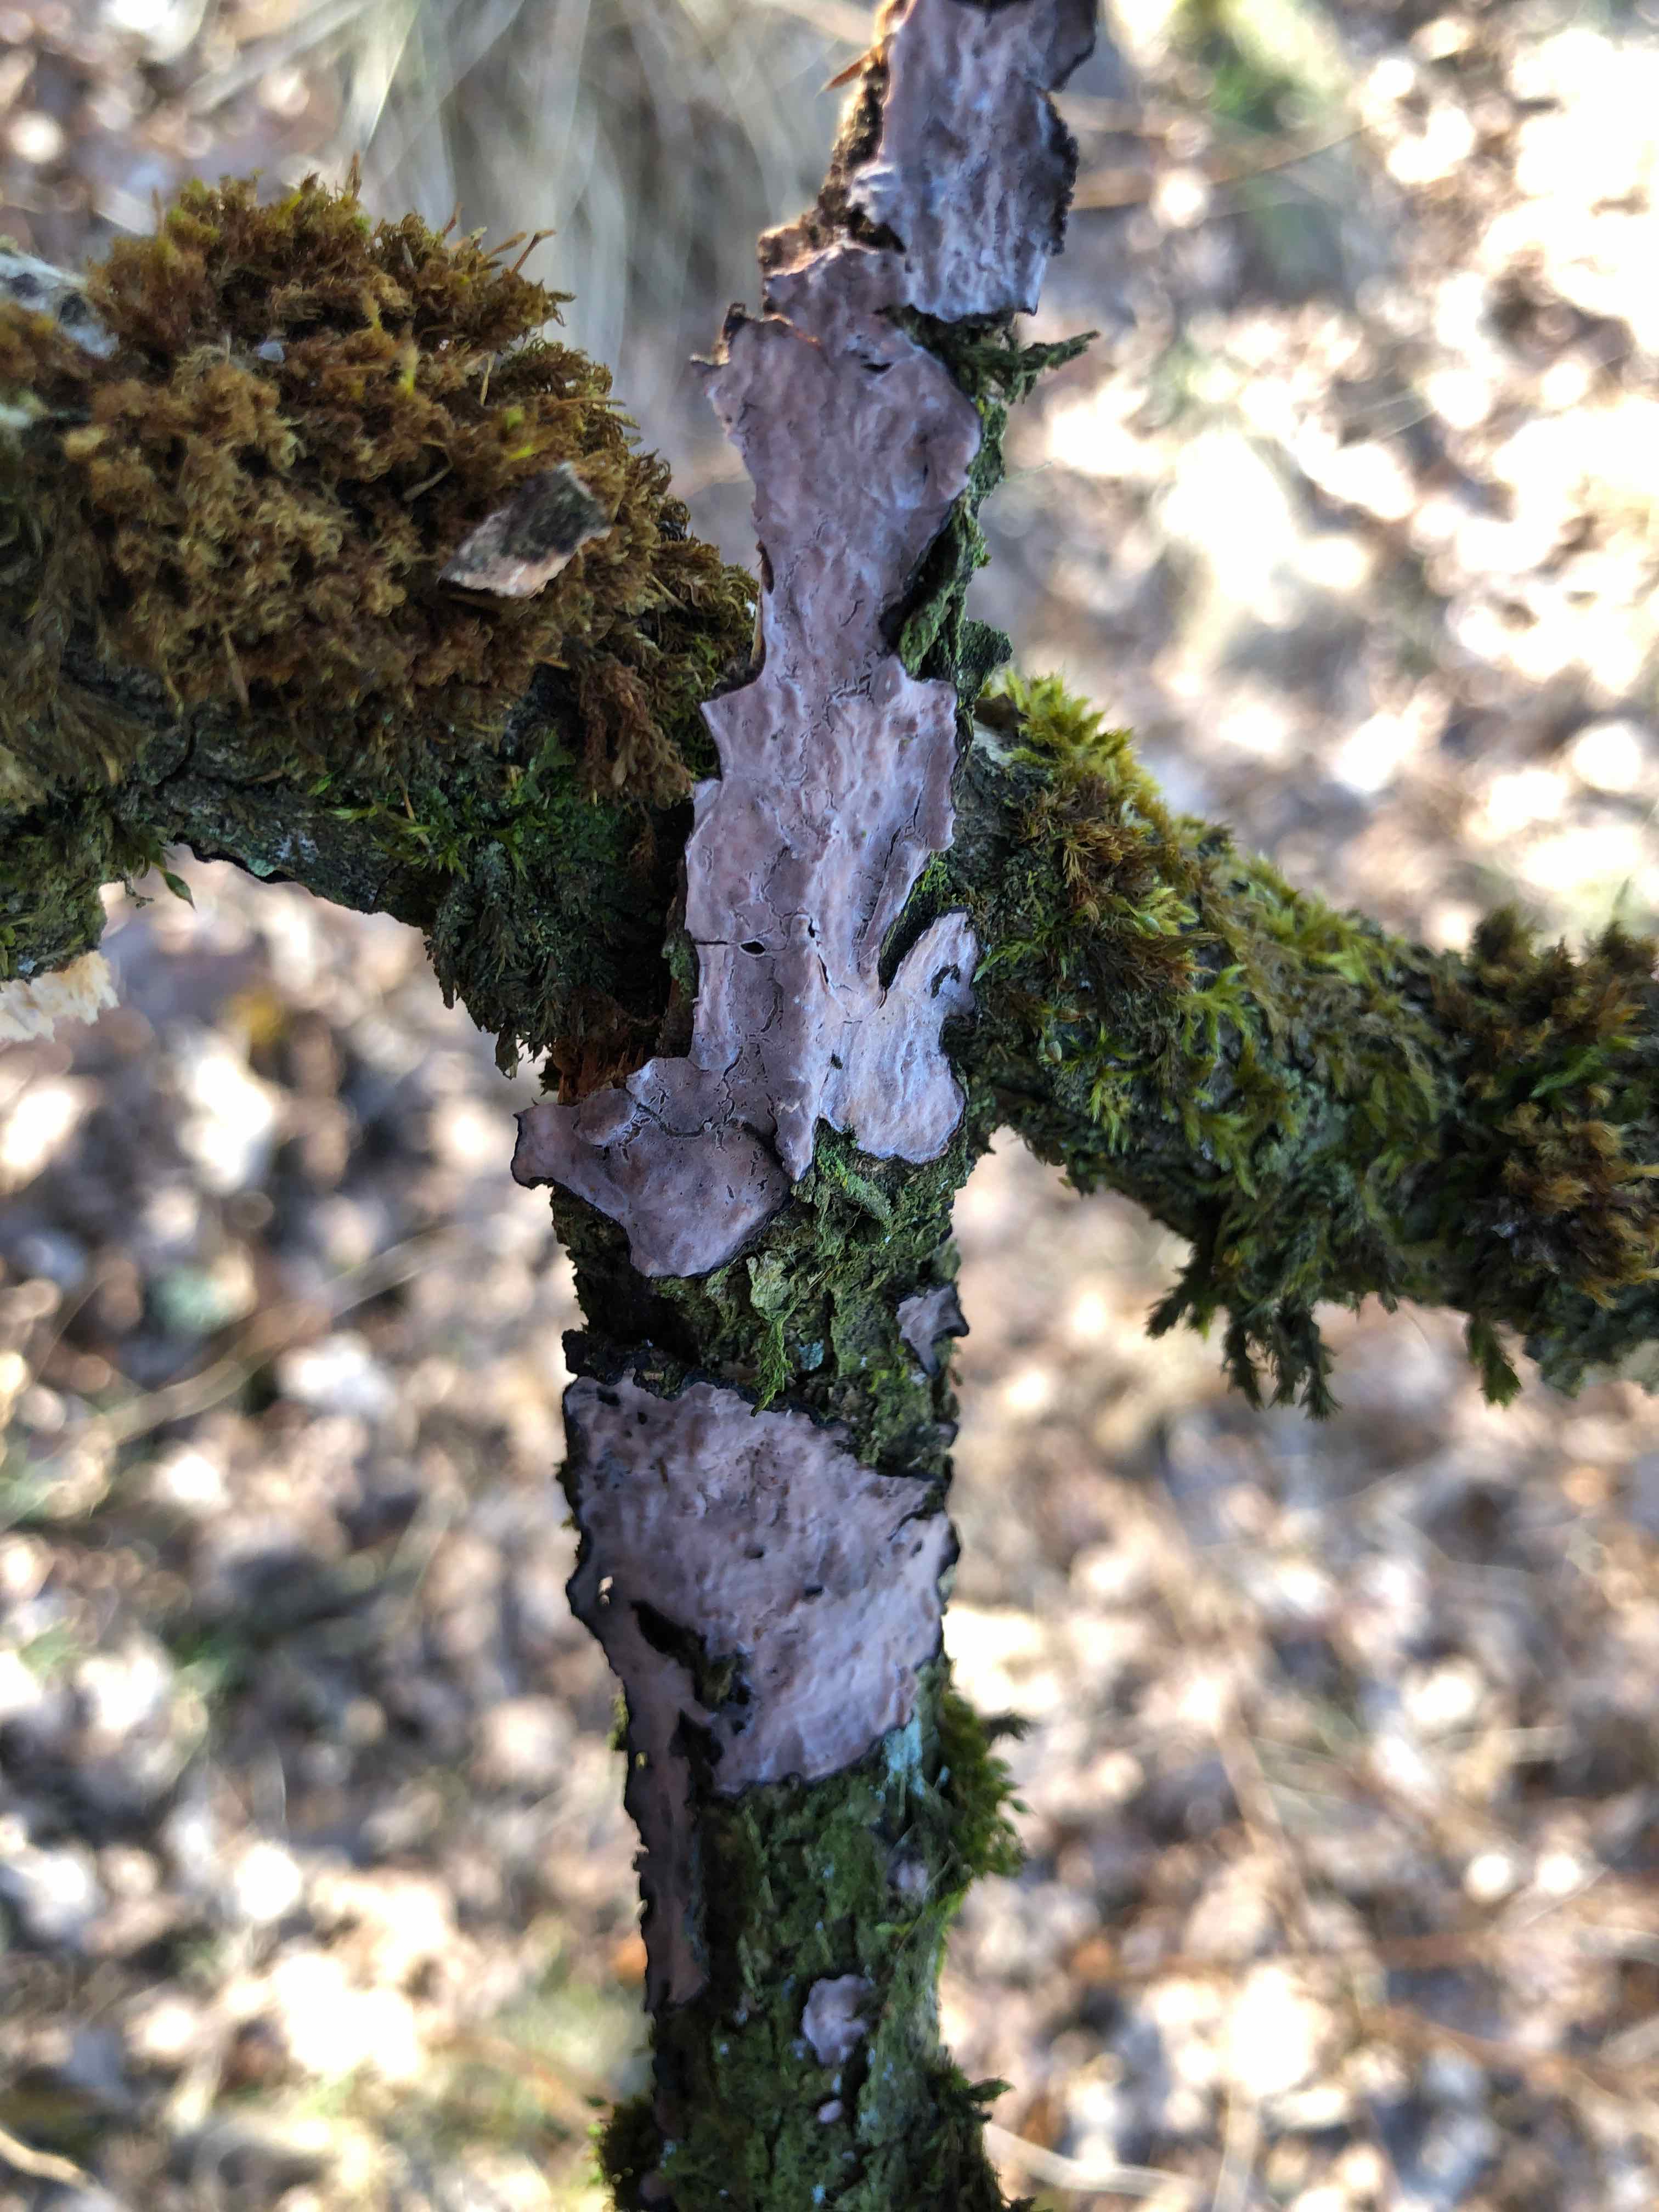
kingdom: Fungi
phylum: Basidiomycota
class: Agaricomycetes
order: Russulales
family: Peniophoraceae
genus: Peniophora
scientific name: Peniophora quercina
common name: ege-voksskind
